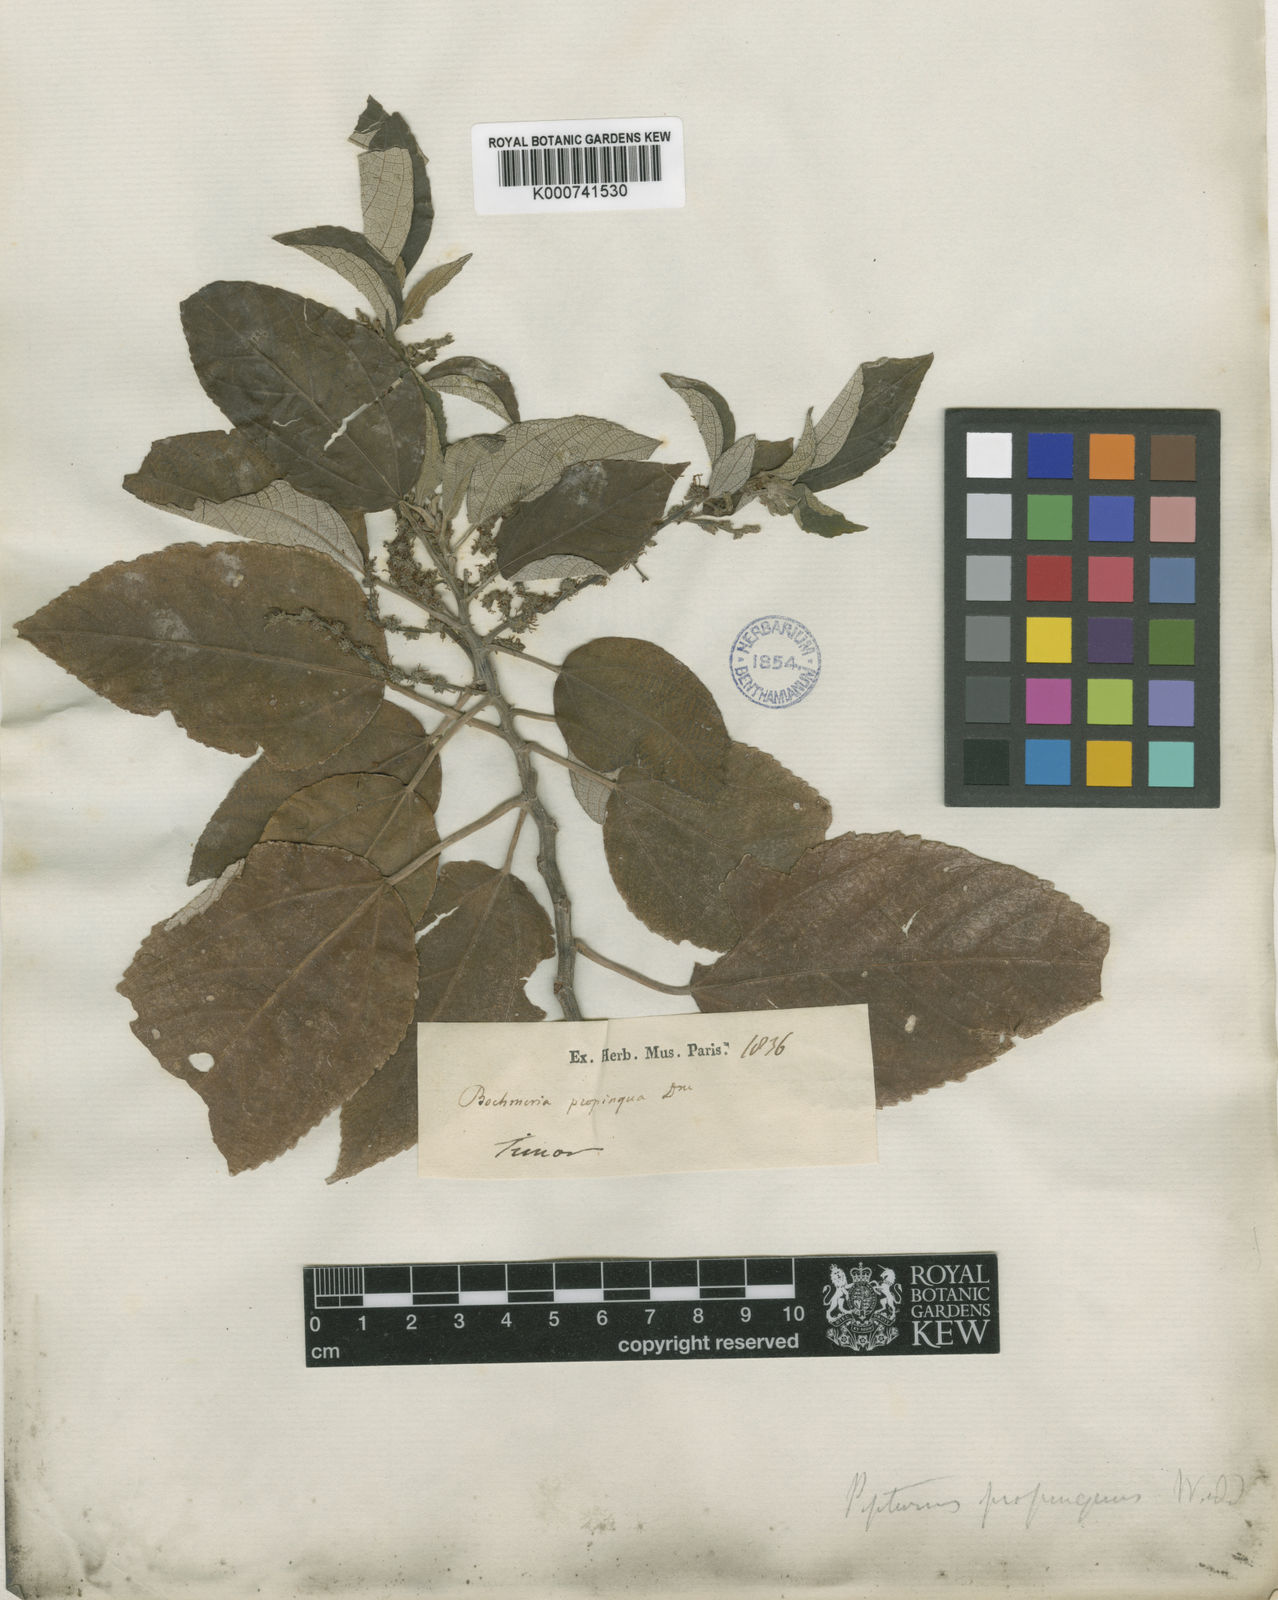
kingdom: Plantae
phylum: Tracheophyta
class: Magnoliopsida
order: Rosales
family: Urticaceae
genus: Pipturus
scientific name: Pipturus argenteus
